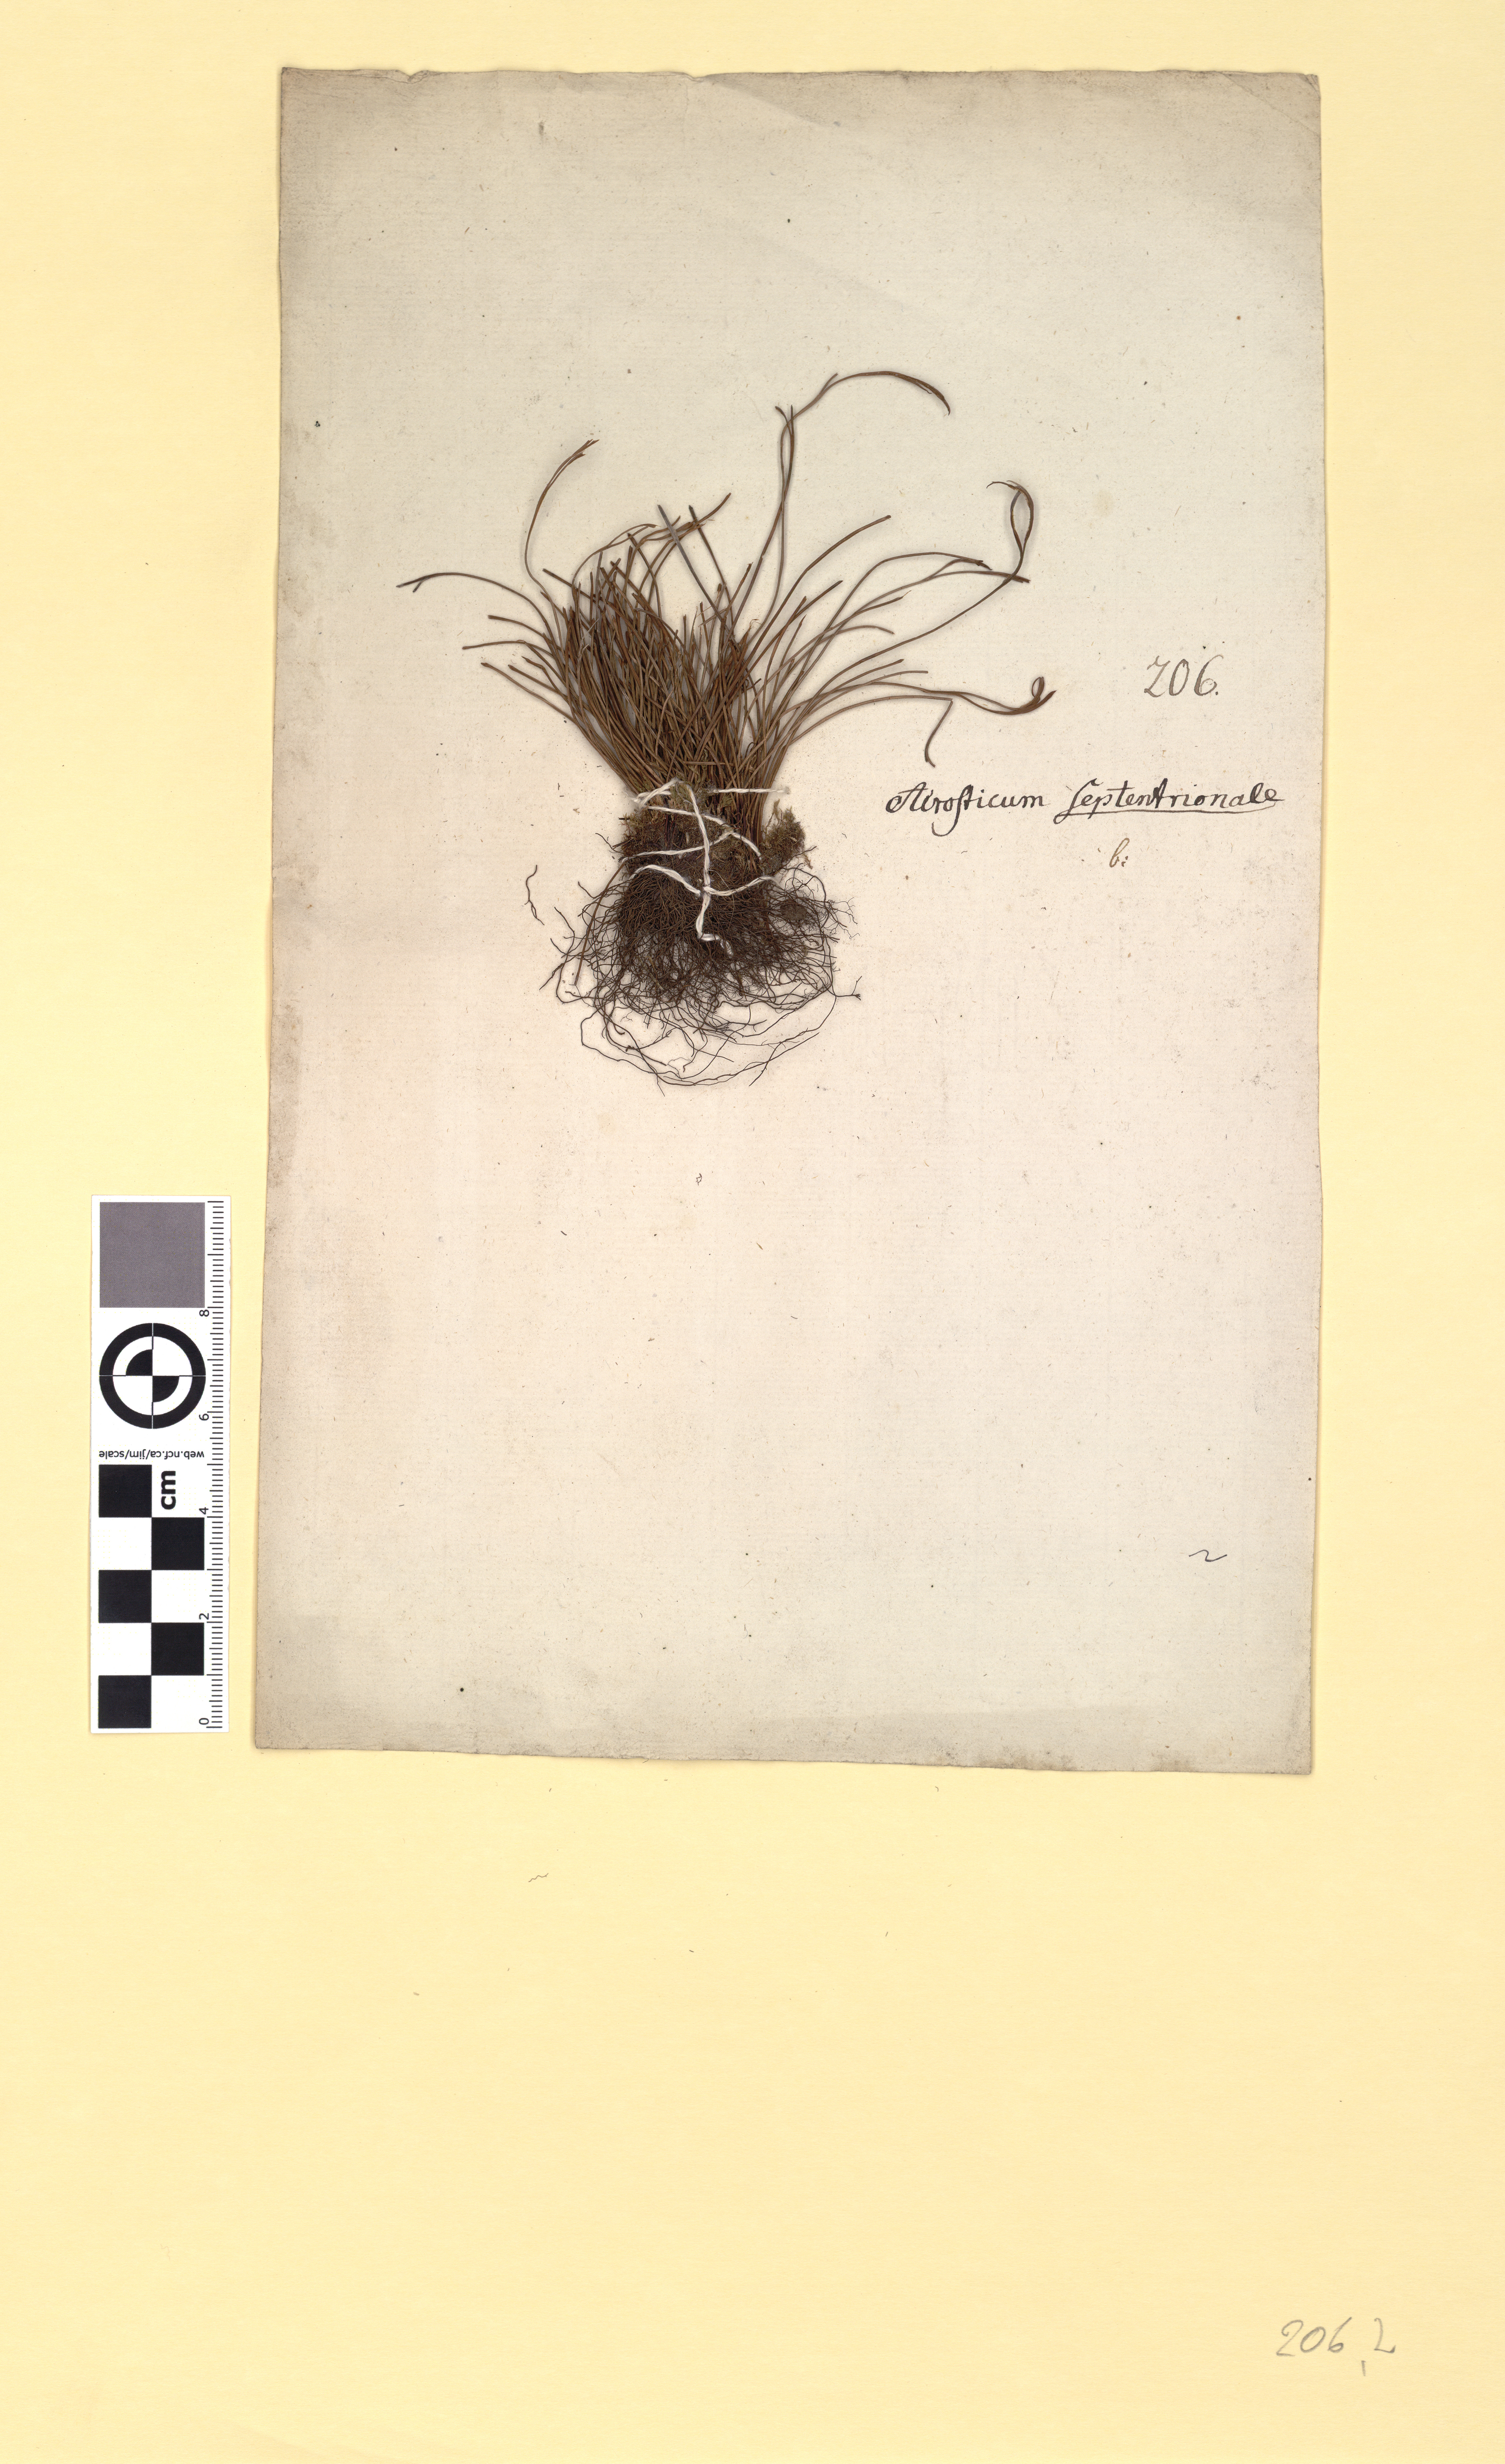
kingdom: Plantae
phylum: Tracheophyta
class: Polypodiopsida
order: Polypodiales
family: Aspleniaceae
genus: Asplenium
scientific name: Asplenium septentrionale
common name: Forked spleenwort
